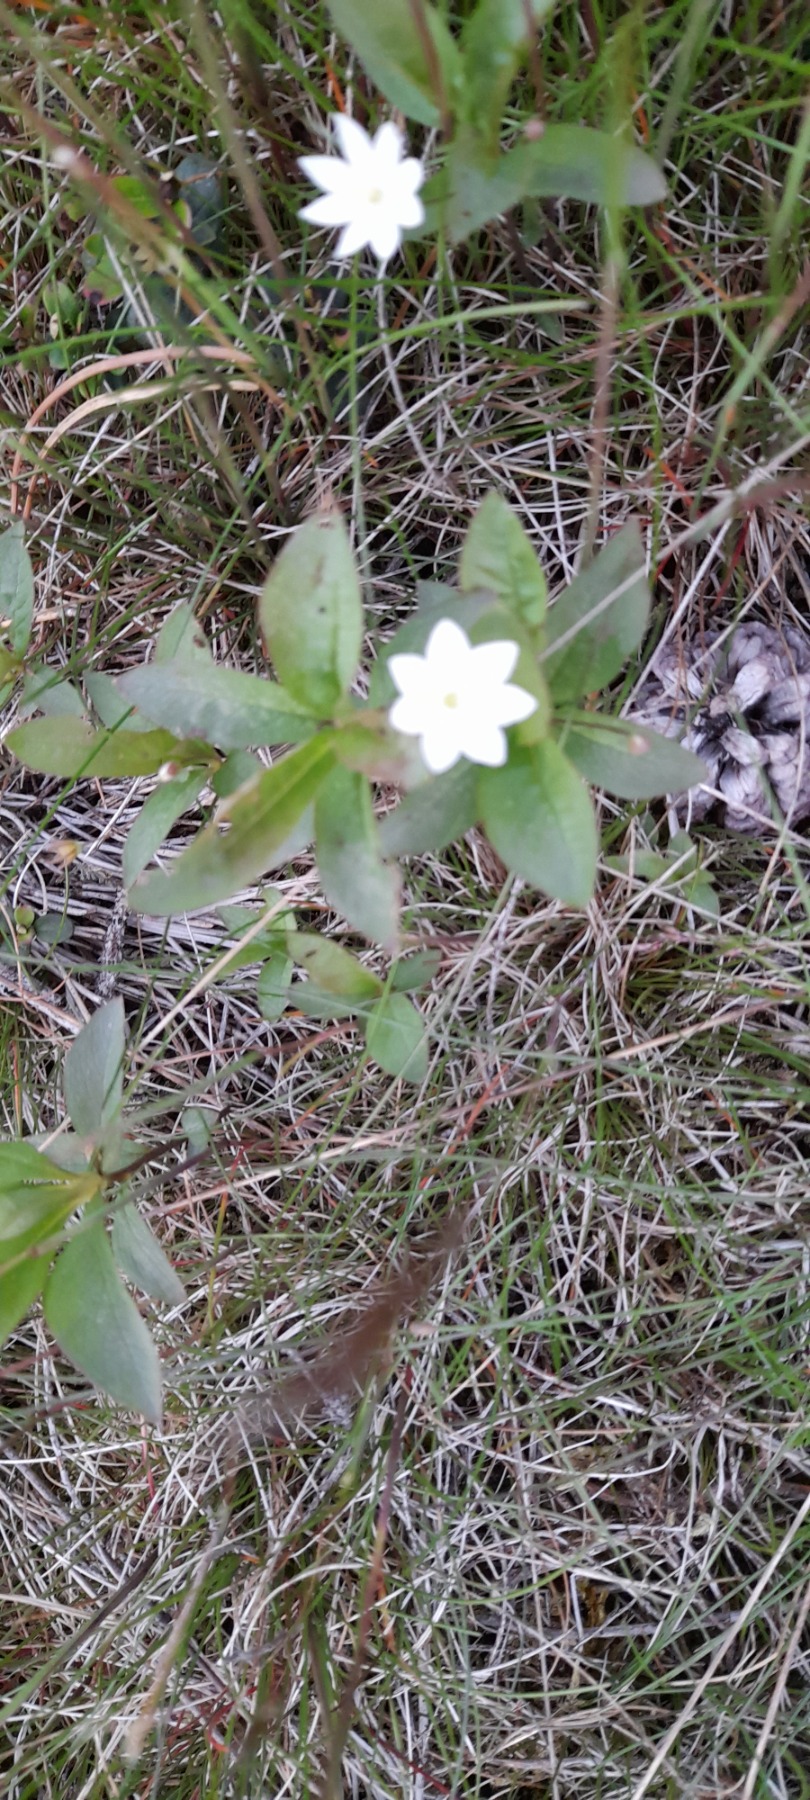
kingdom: Plantae
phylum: Tracheophyta
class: Magnoliopsida
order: Ericales
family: Primulaceae
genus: Lysimachia
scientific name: Lysimachia europaea
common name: Skovstjerne
